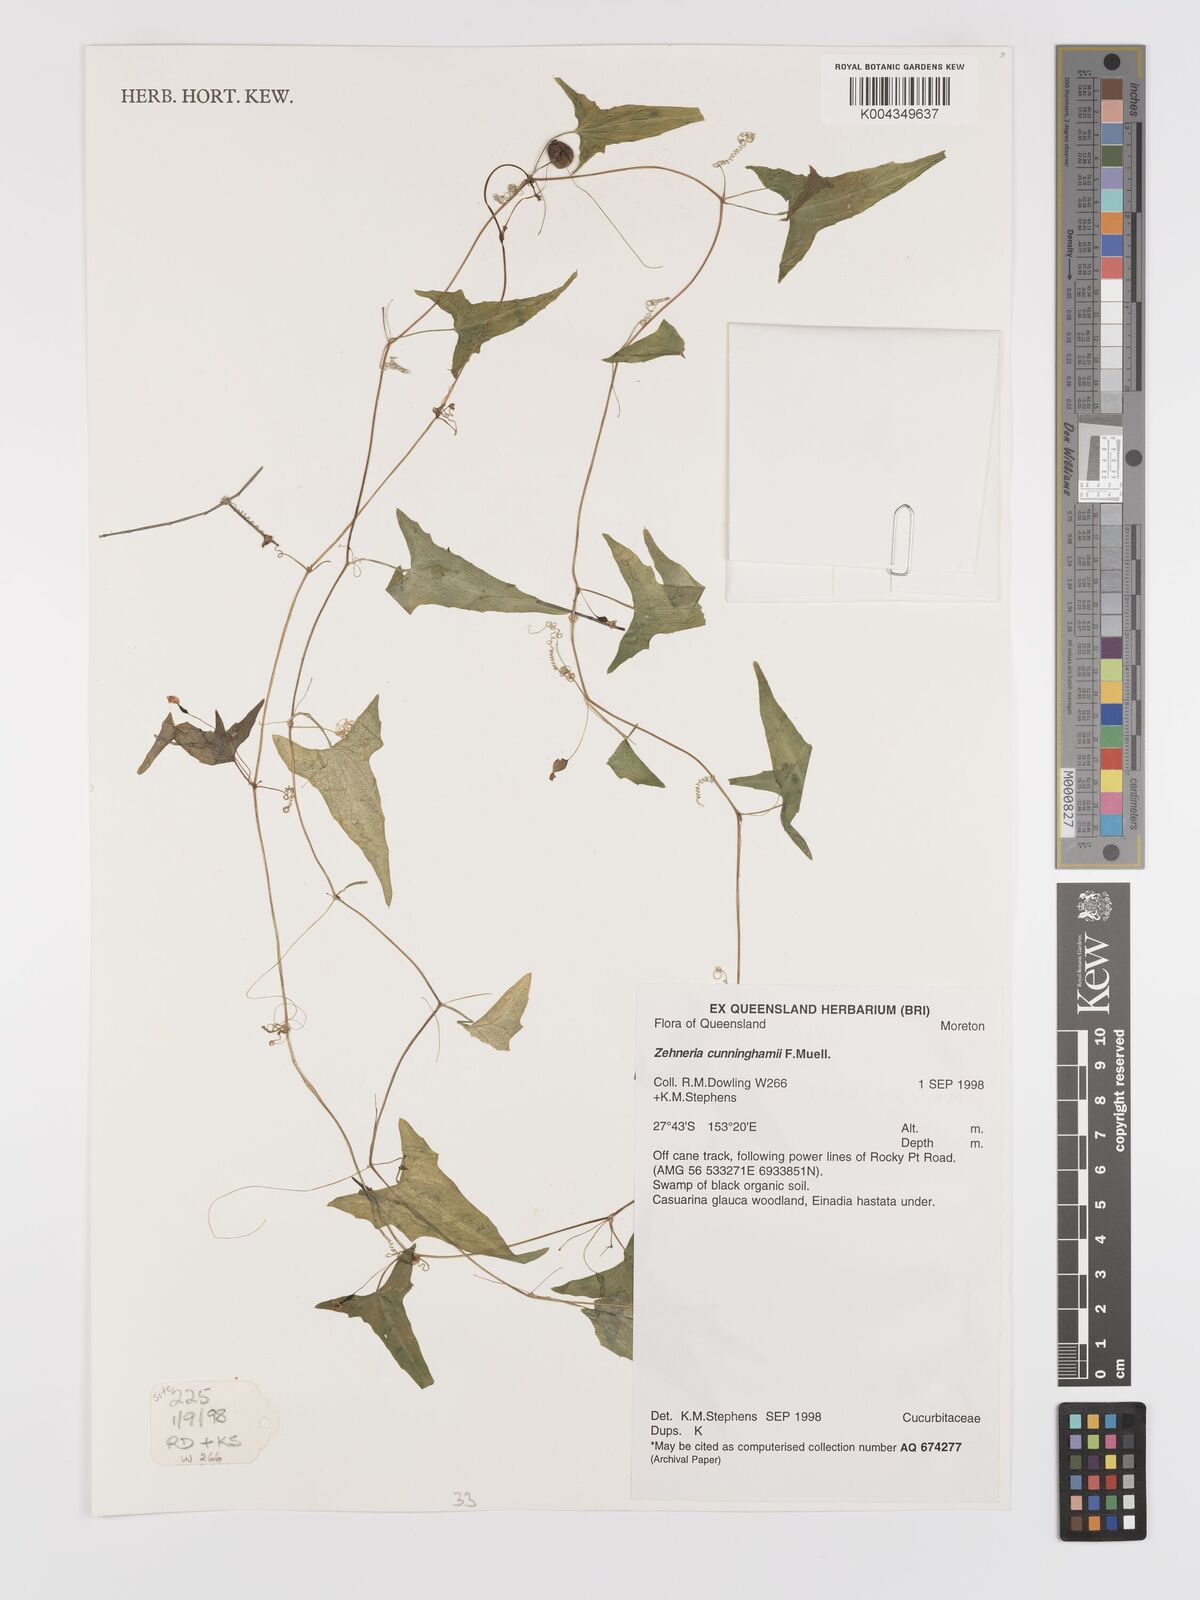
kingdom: Plantae
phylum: Tracheophyta
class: Magnoliopsida
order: Cucurbitales
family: Cucurbitaceae
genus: Zehneria
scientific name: Zehneria cunninghamii
